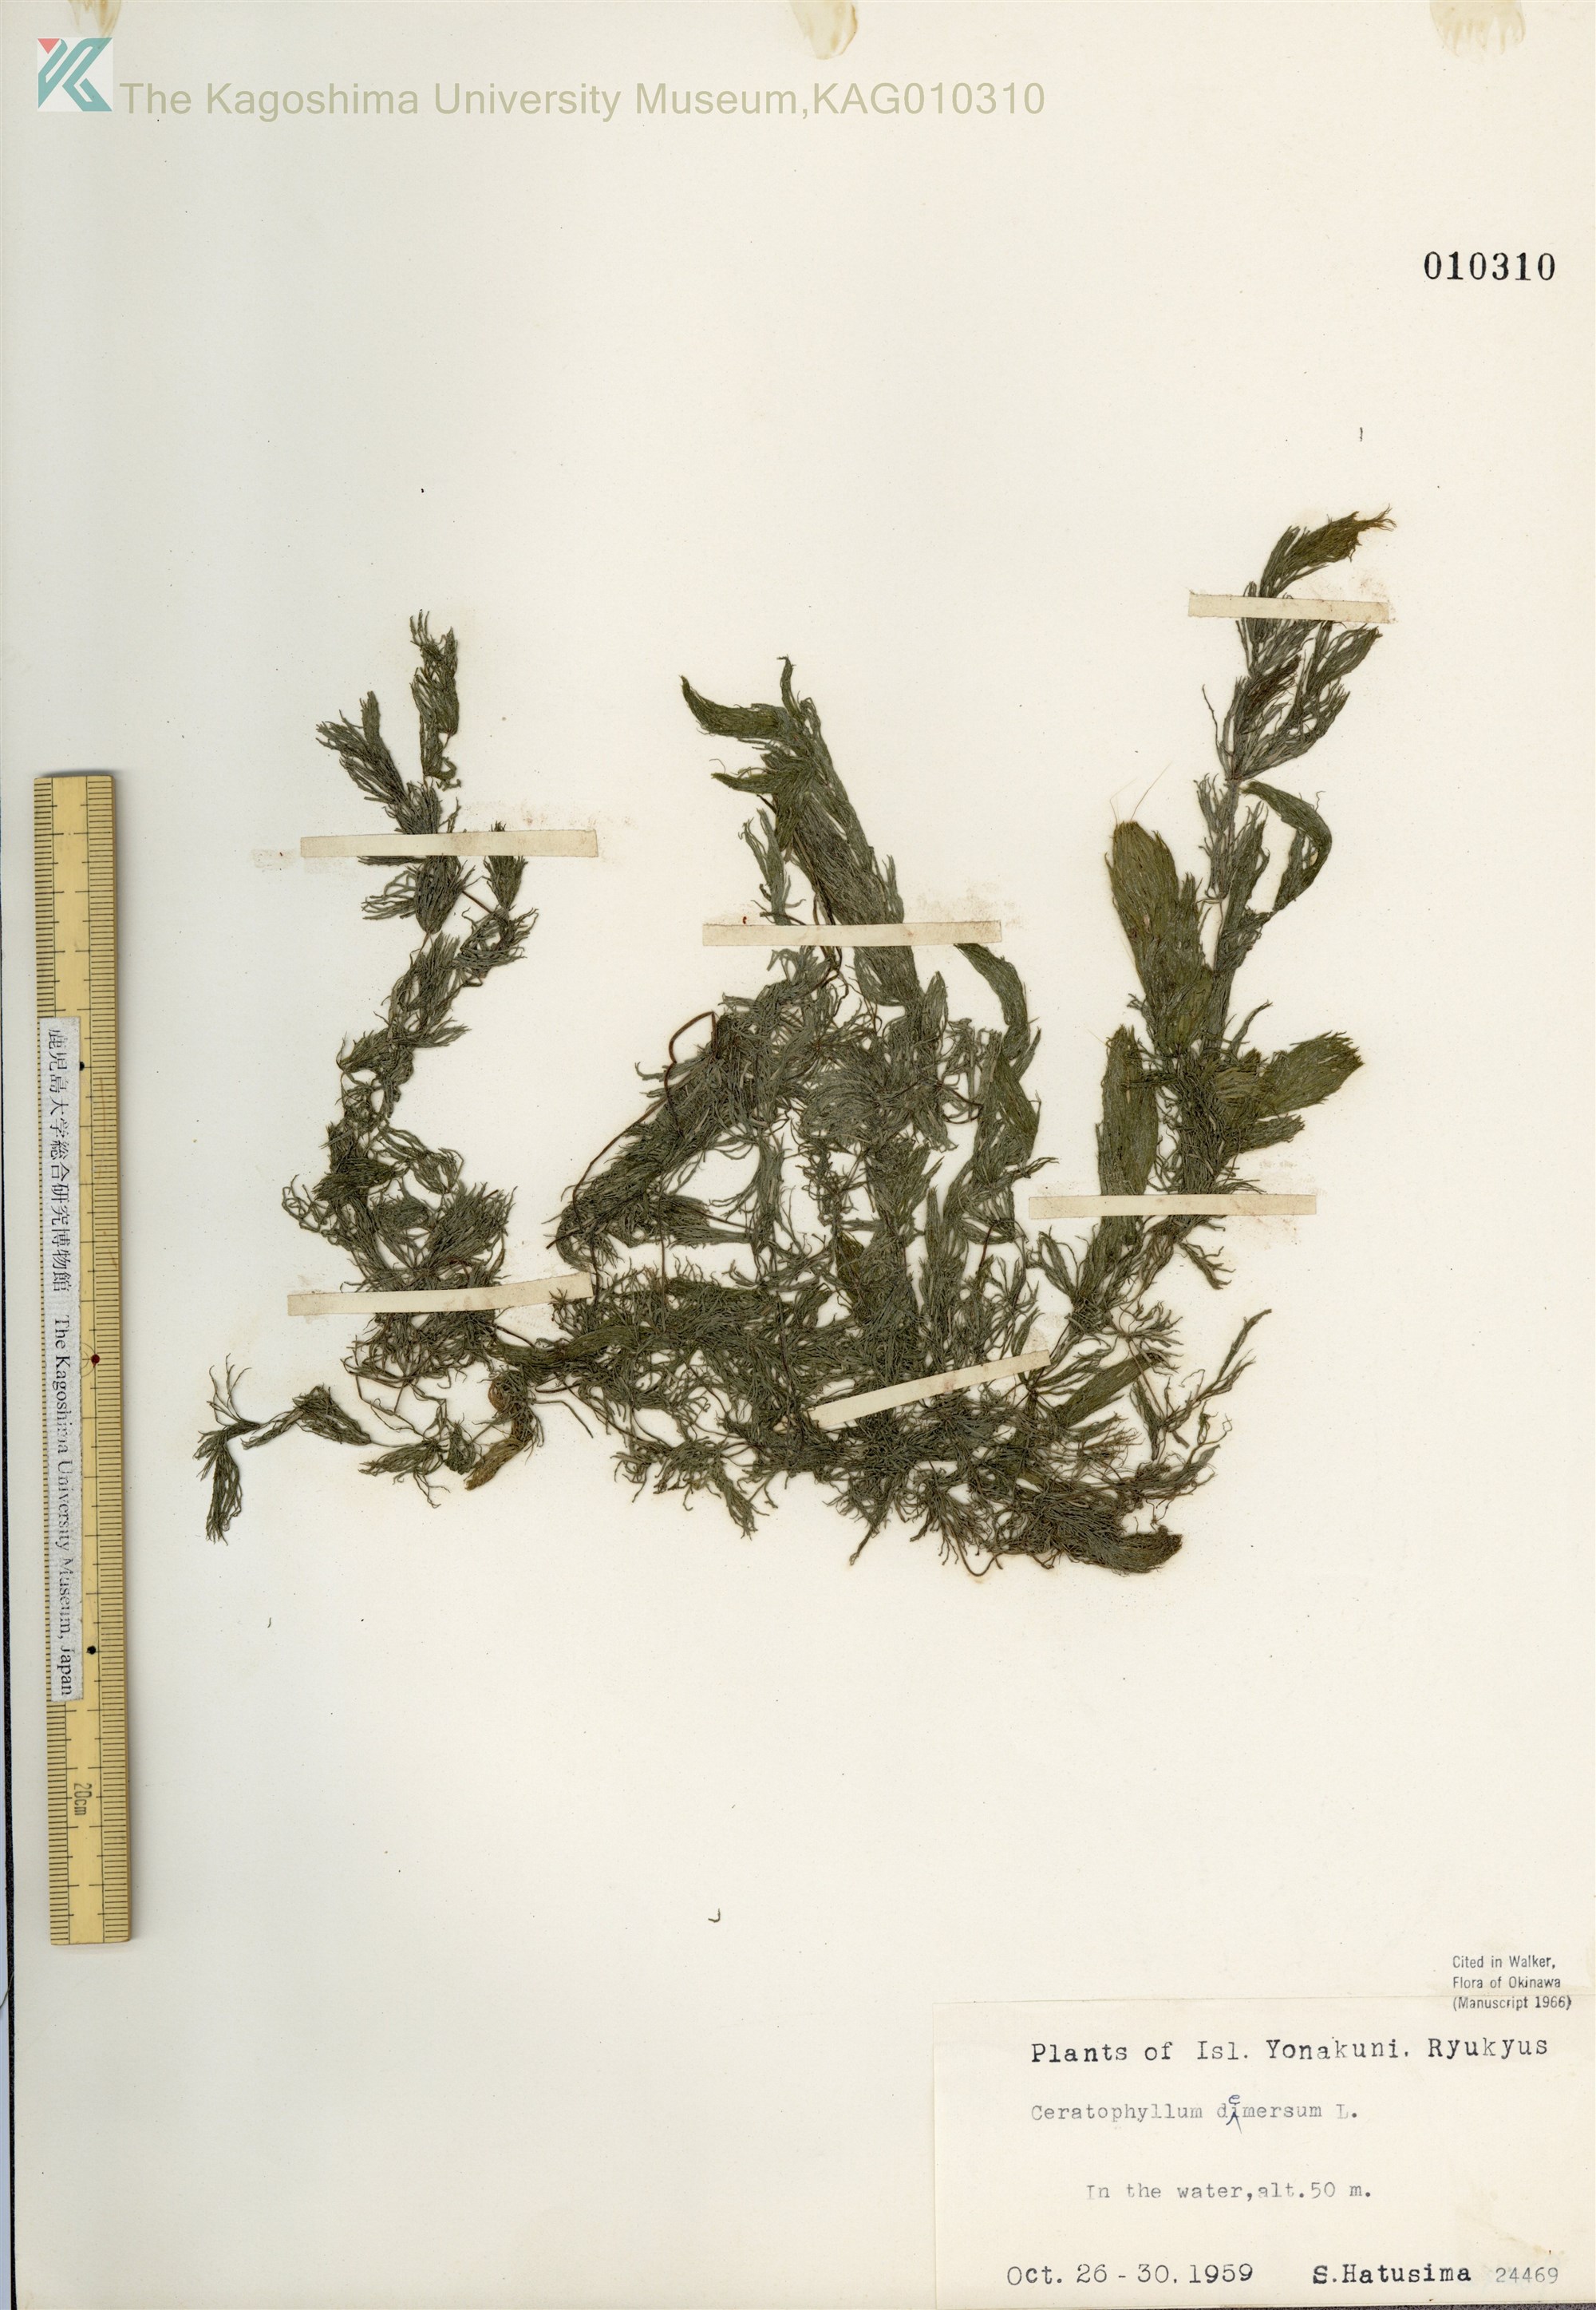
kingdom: Plantae
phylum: Tracheophyta
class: Magnoliopsida
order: Ceratophyllales
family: Ceratophyllaceae
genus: Ceratophyllum
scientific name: Ceratophyllum demersum
